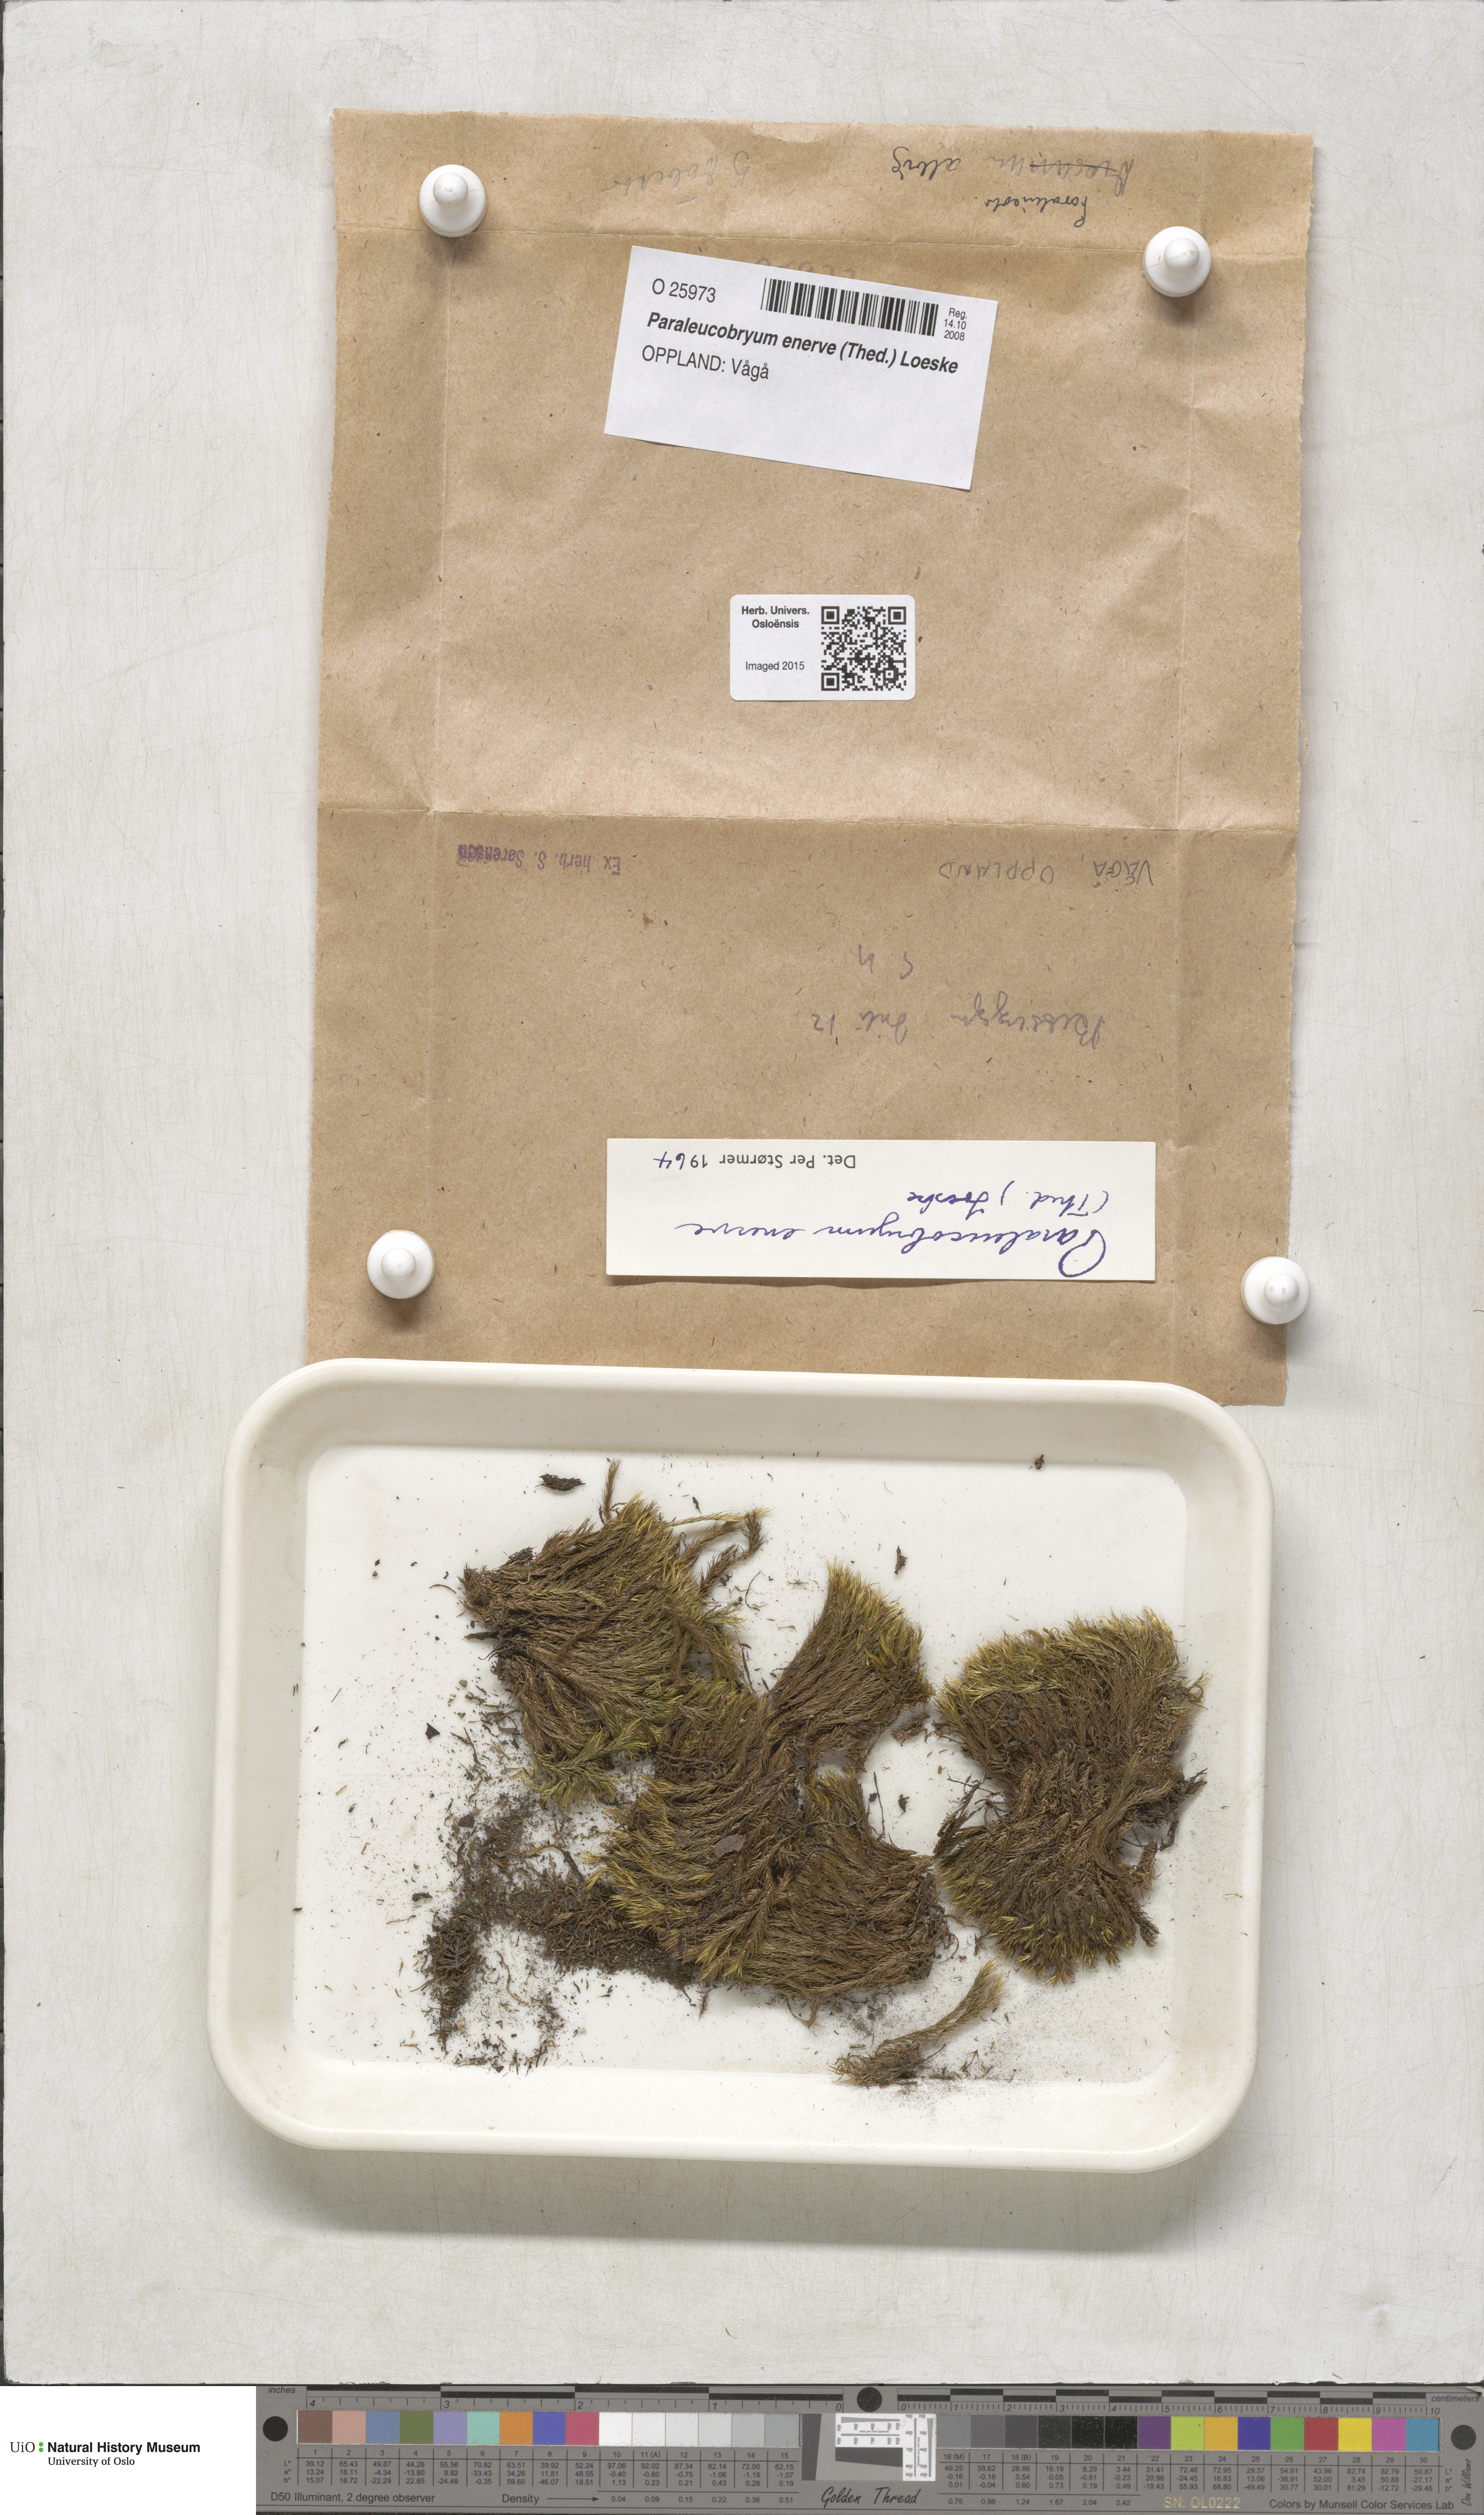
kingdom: Plantae
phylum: Bryophyta
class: Bryopsida
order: Dicranales
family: Dicranaceae
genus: Paraleucobryum
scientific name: Paraleucobryum enerve
